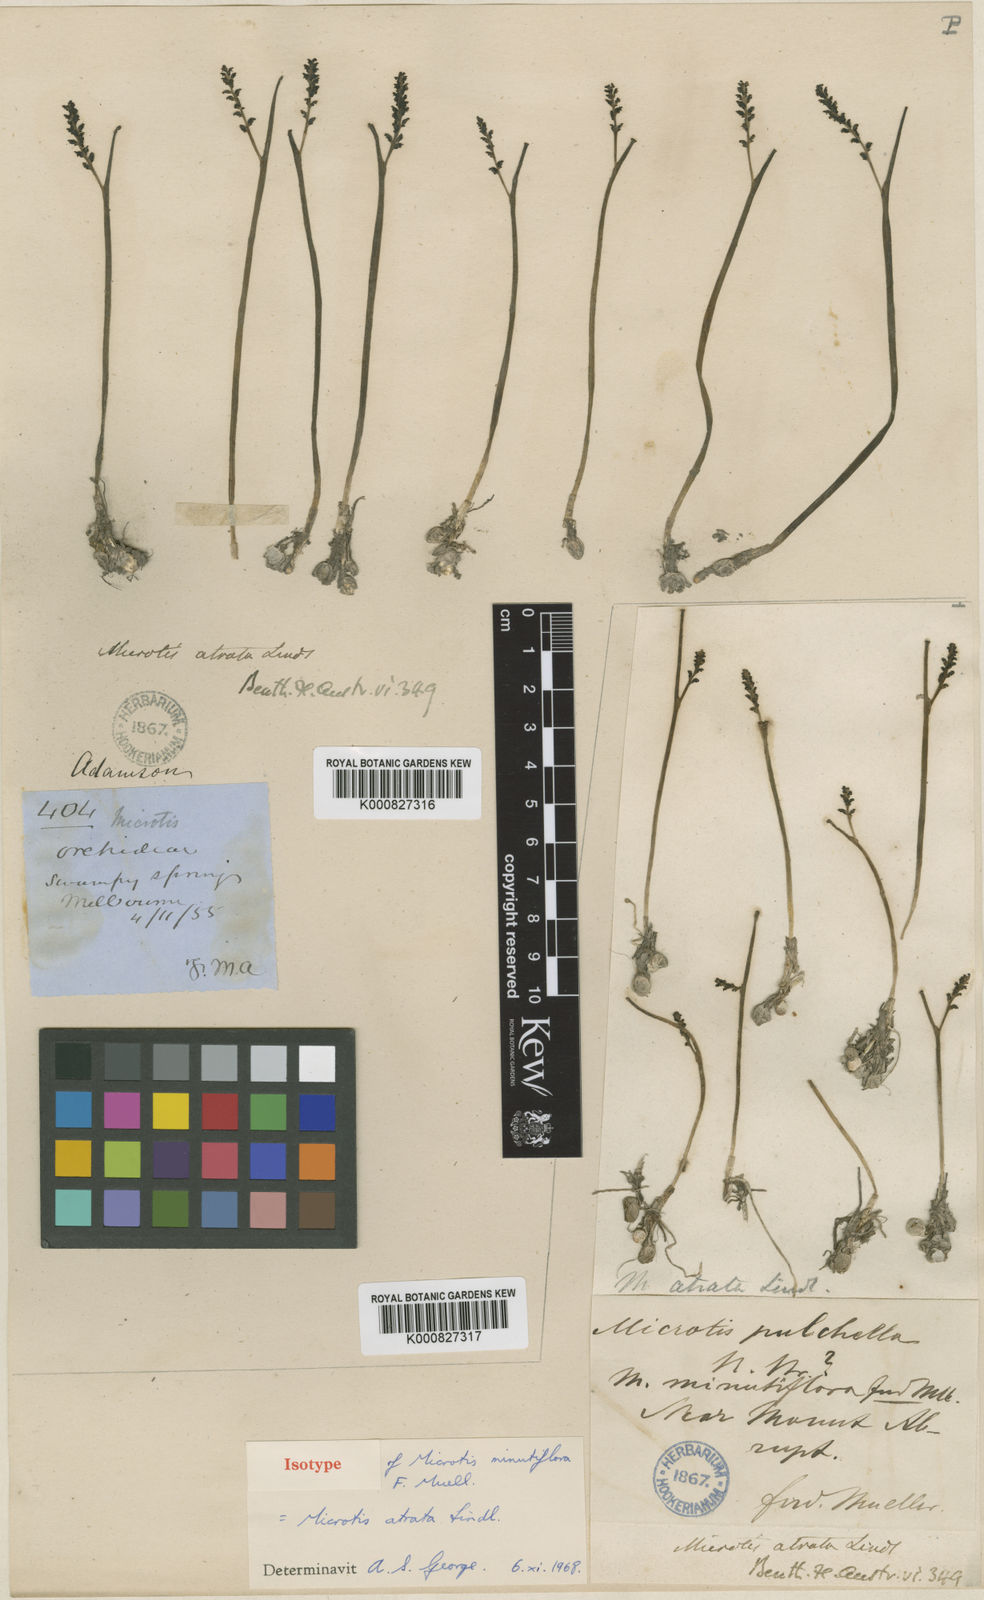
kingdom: Plantae
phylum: Tracheophyta
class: Liliopsida
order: Asparagales
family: Orchidaceae
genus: Microtis
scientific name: Microtis atrata
